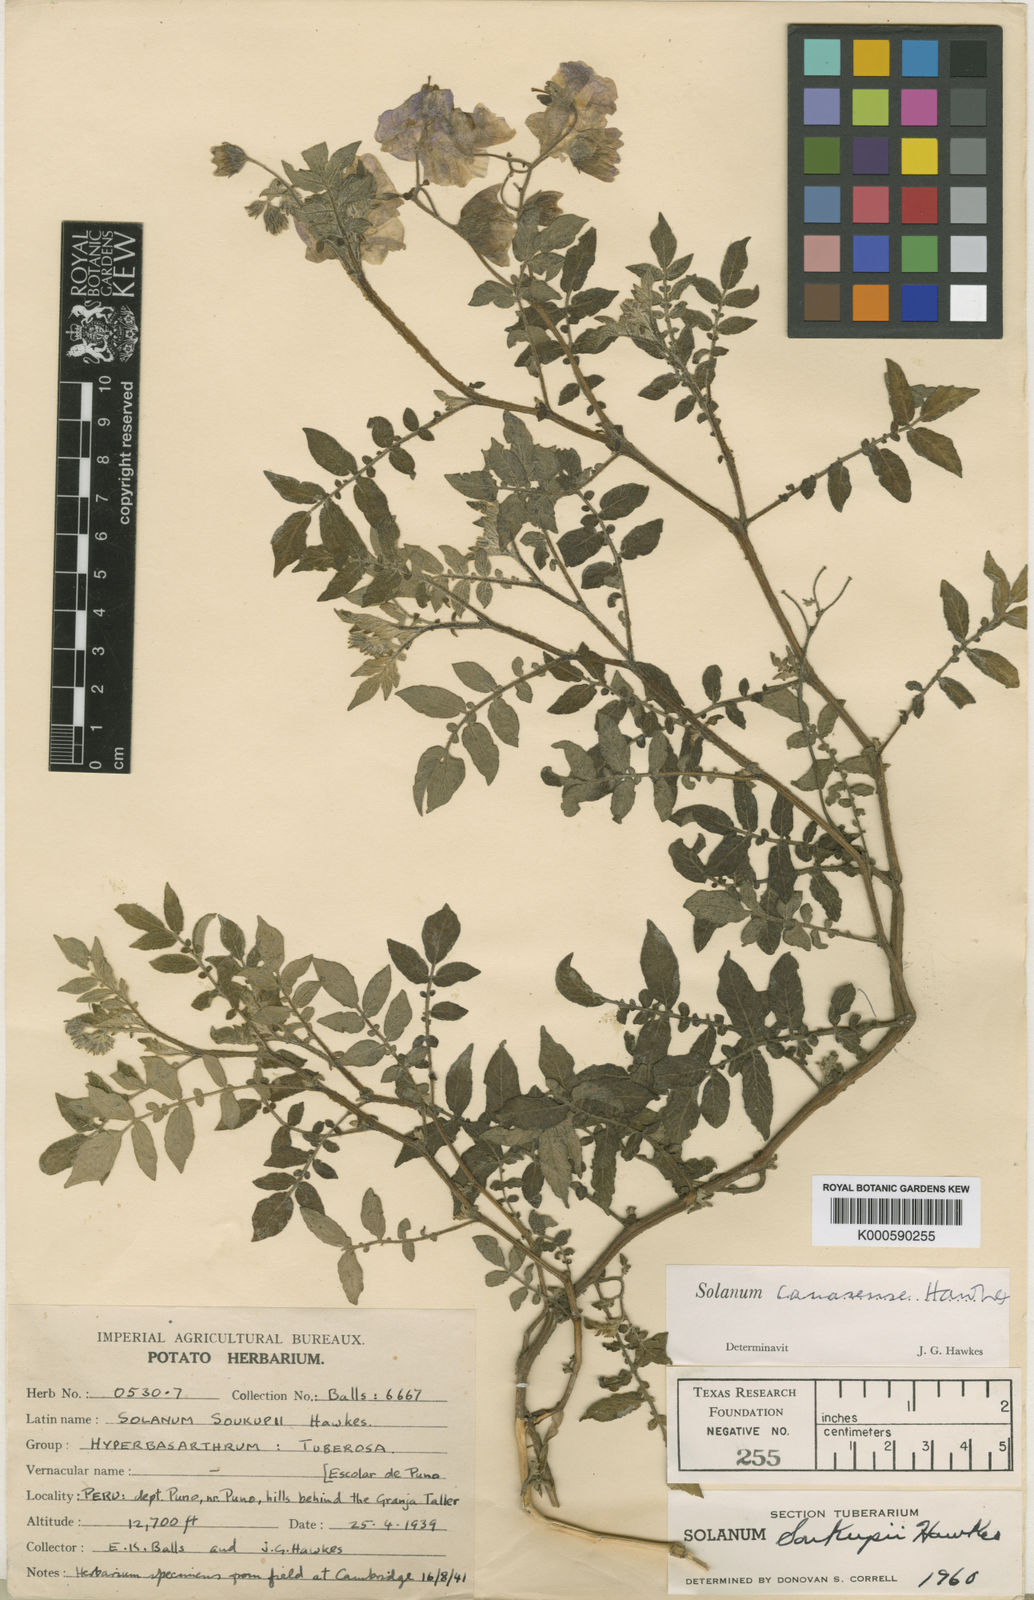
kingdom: Plantae
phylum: Tracheophyta
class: Magnoliopsida
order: Solanales
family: Solanaceae
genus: Solanum
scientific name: Solanum candolleanum
